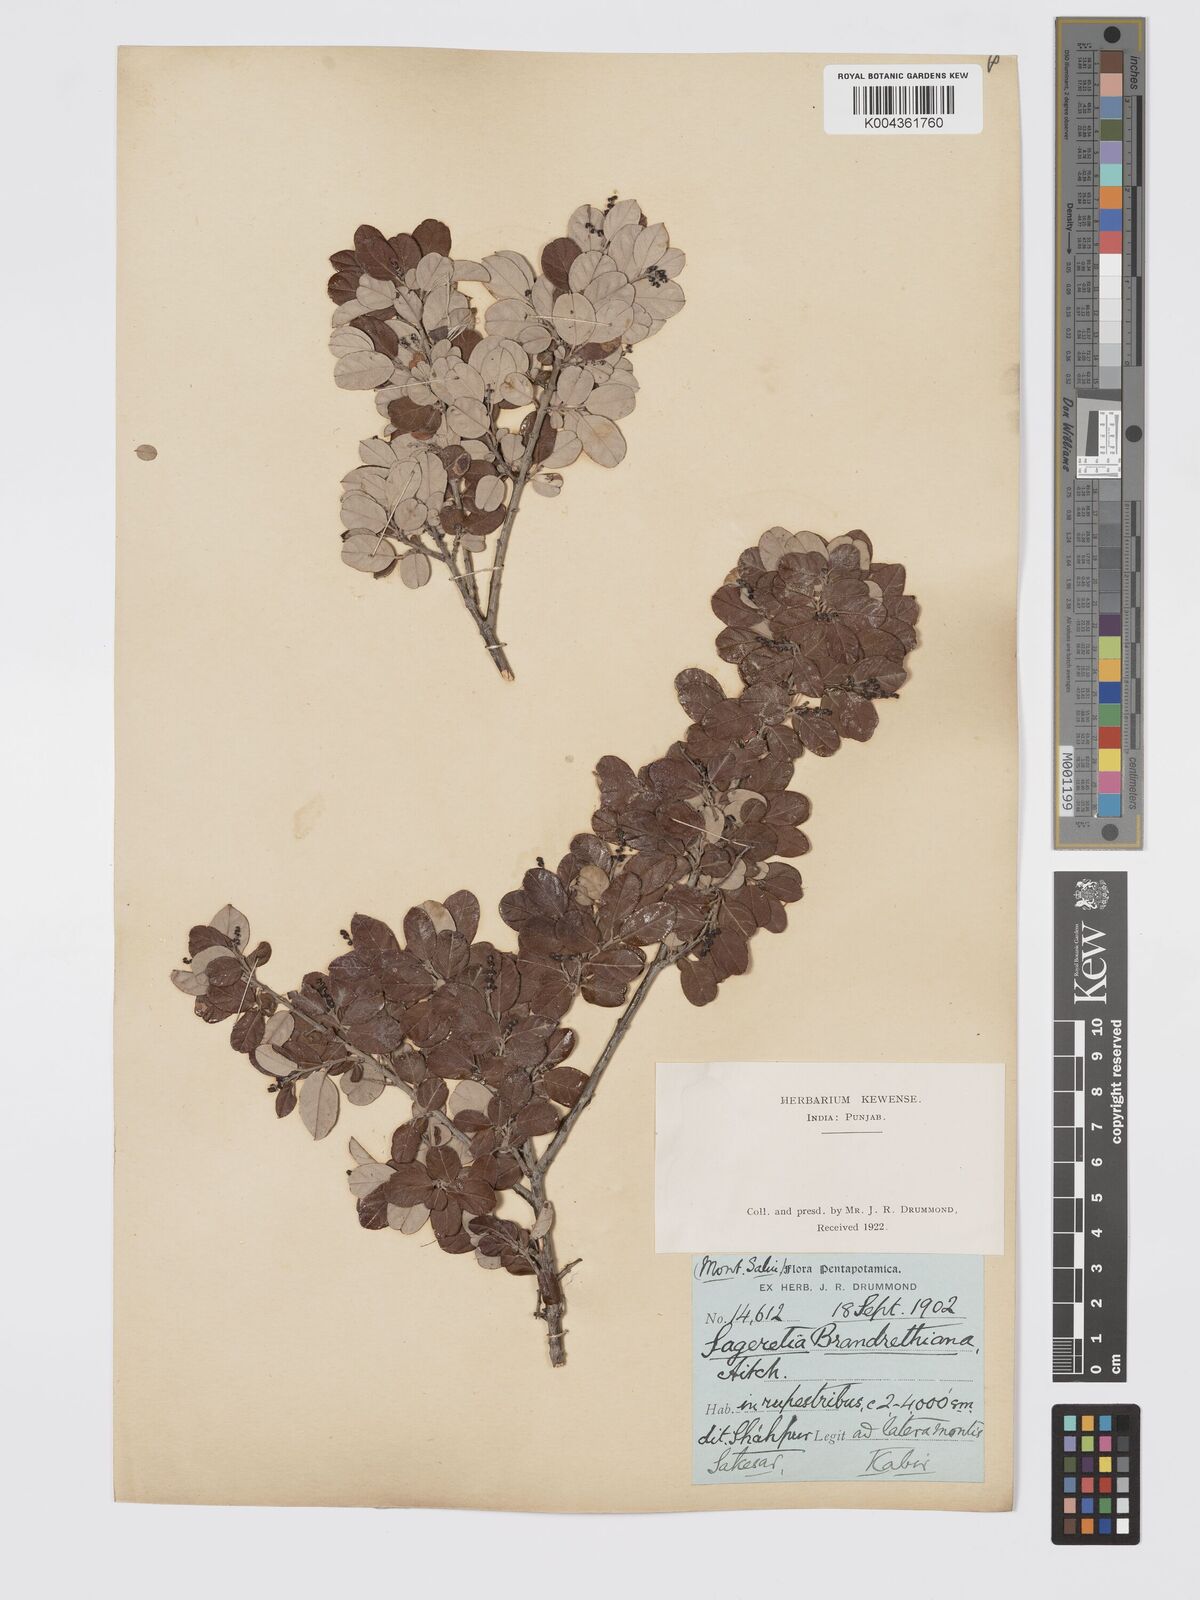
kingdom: Plantae
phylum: Tracheophyta
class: Magnoliopsida
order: Rosales
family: Rhamnaceae
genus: Sageretia
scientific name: Sageretia brandrethiana
